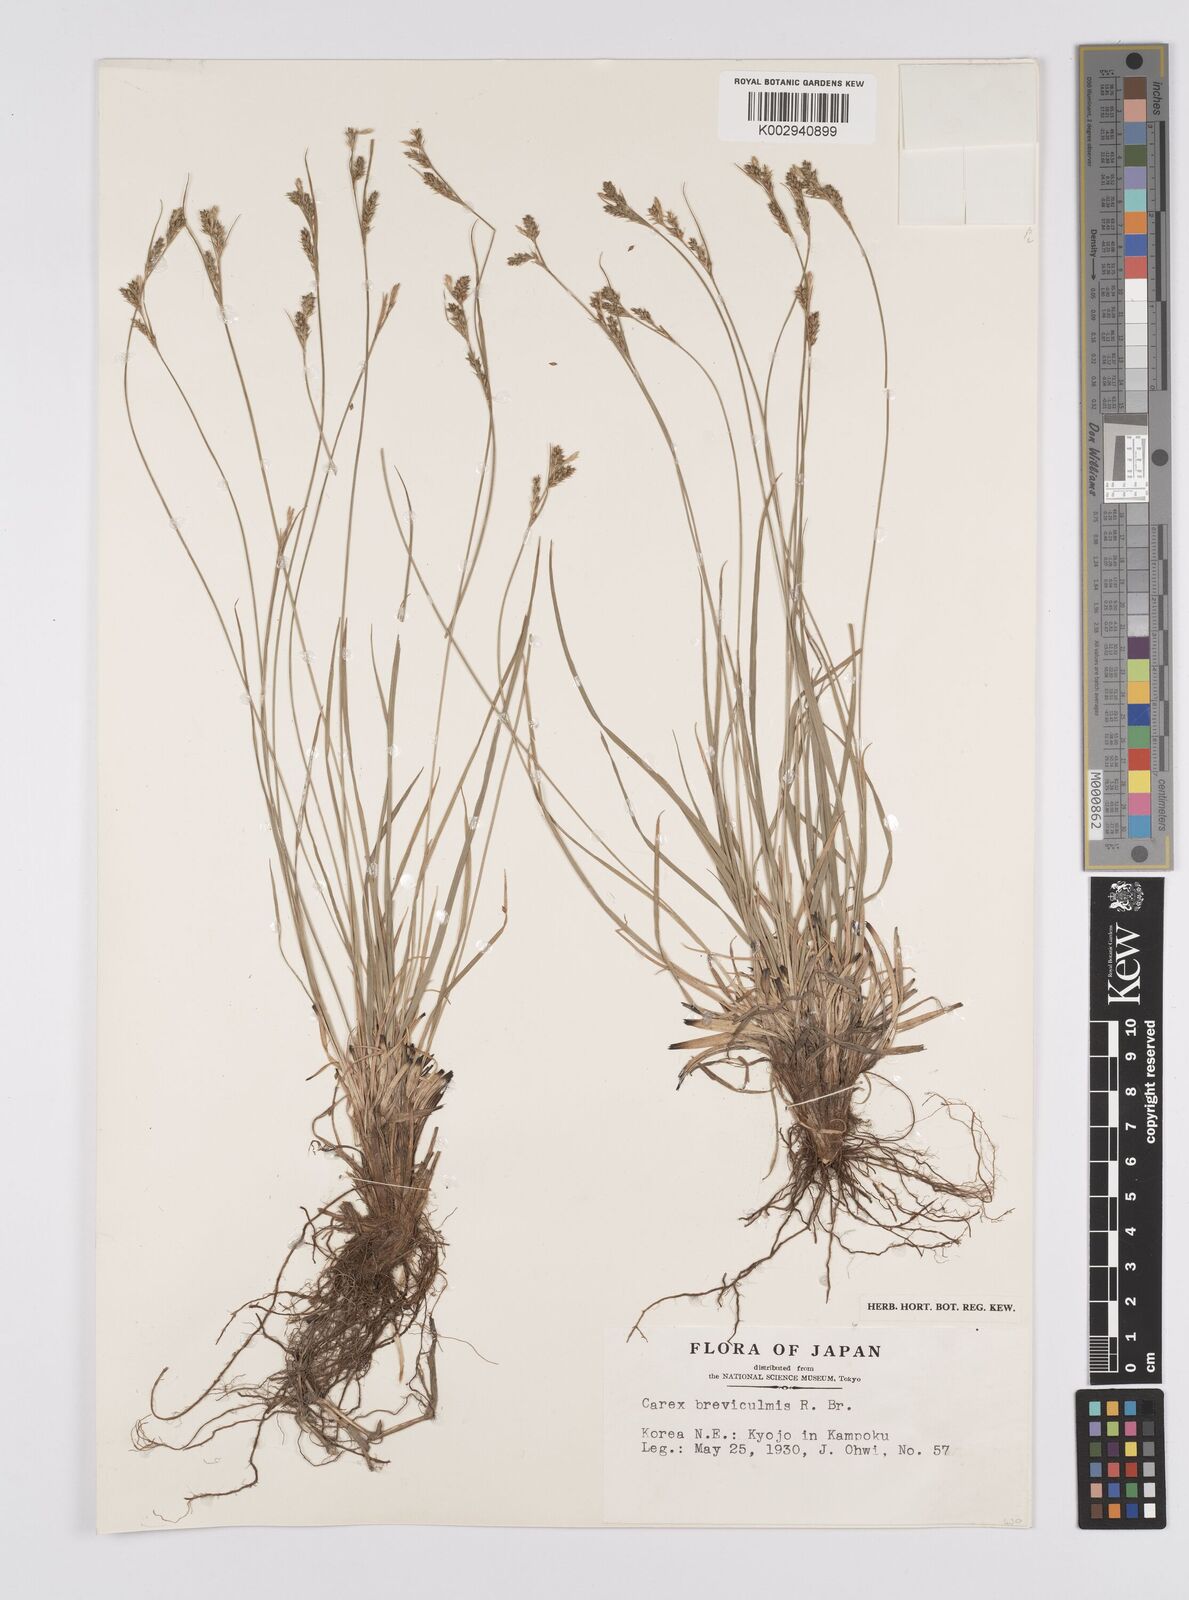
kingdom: Plantae
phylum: Tracheophyta
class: Liliopsida
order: Poales
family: Cyperaceae
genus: Carex
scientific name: Carex breviculmis
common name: Asian shortstem sedge
